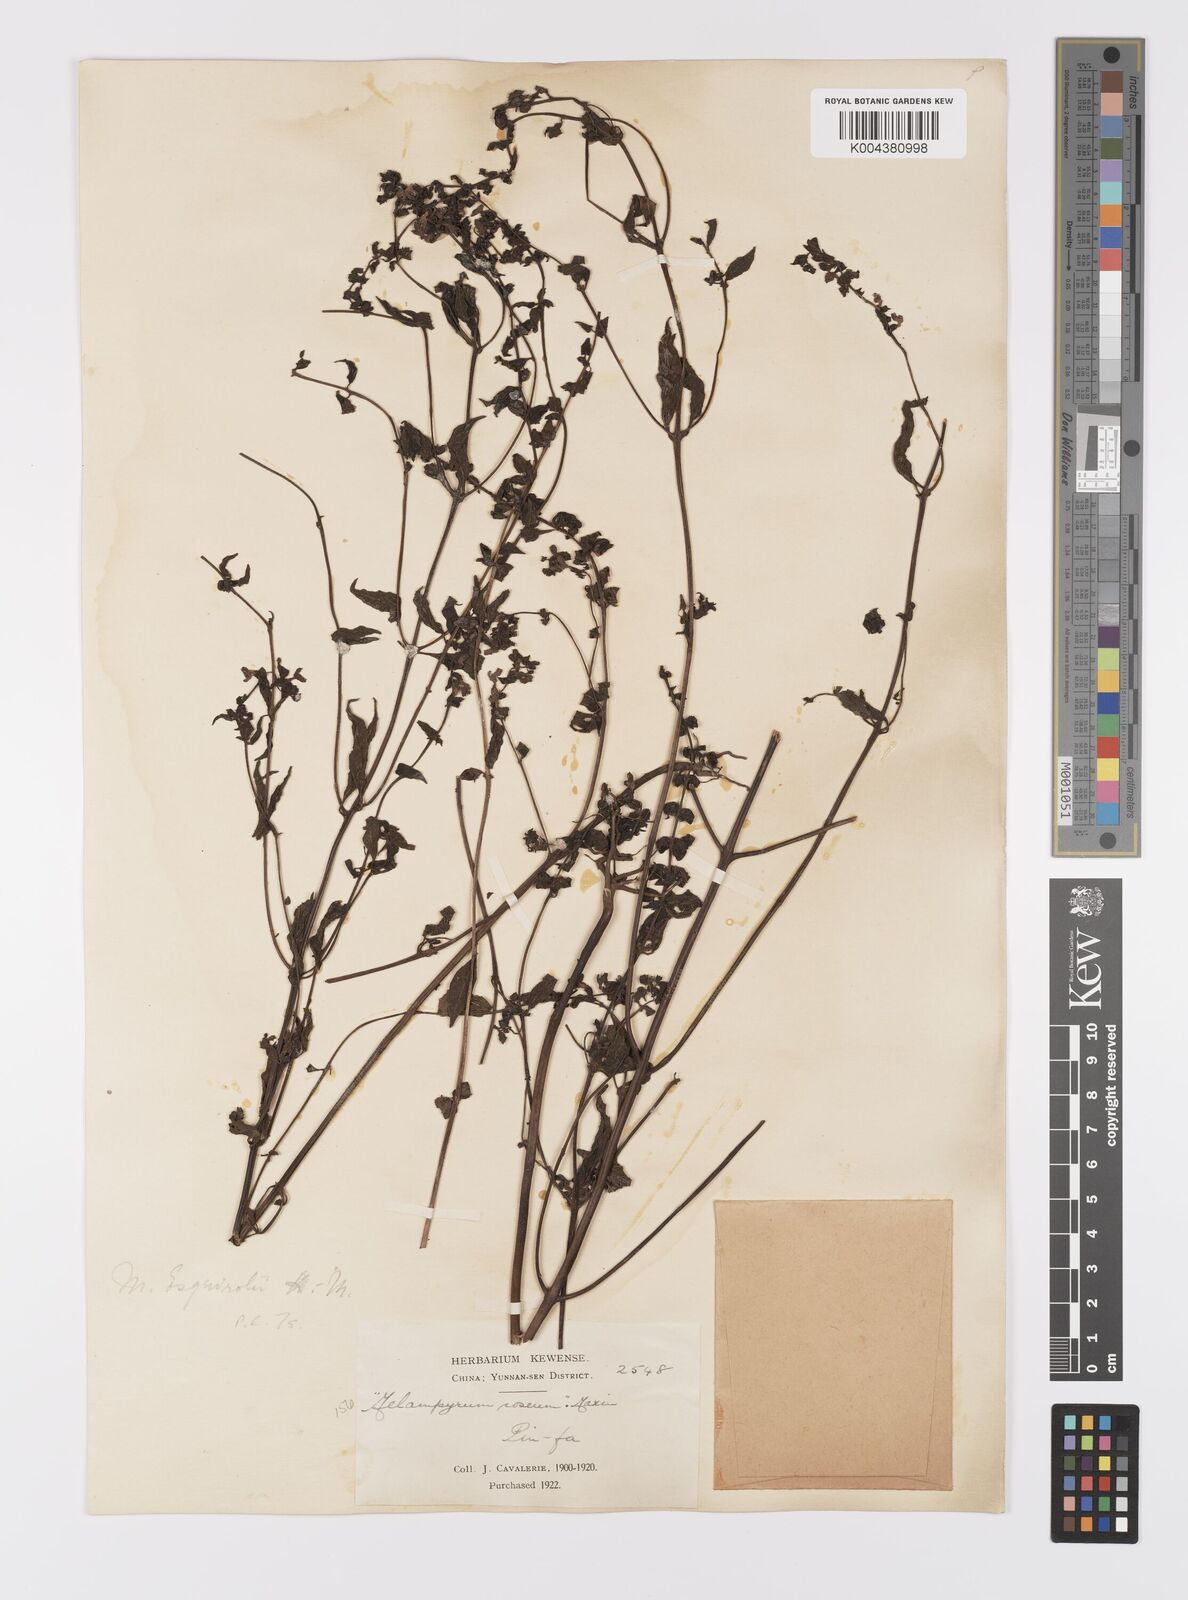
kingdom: Plantae
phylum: Tracheophyta
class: Magnoliopsida
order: Lamiales
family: Orobanchaceae
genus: Melampyrum
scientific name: Melampyrum roseum
